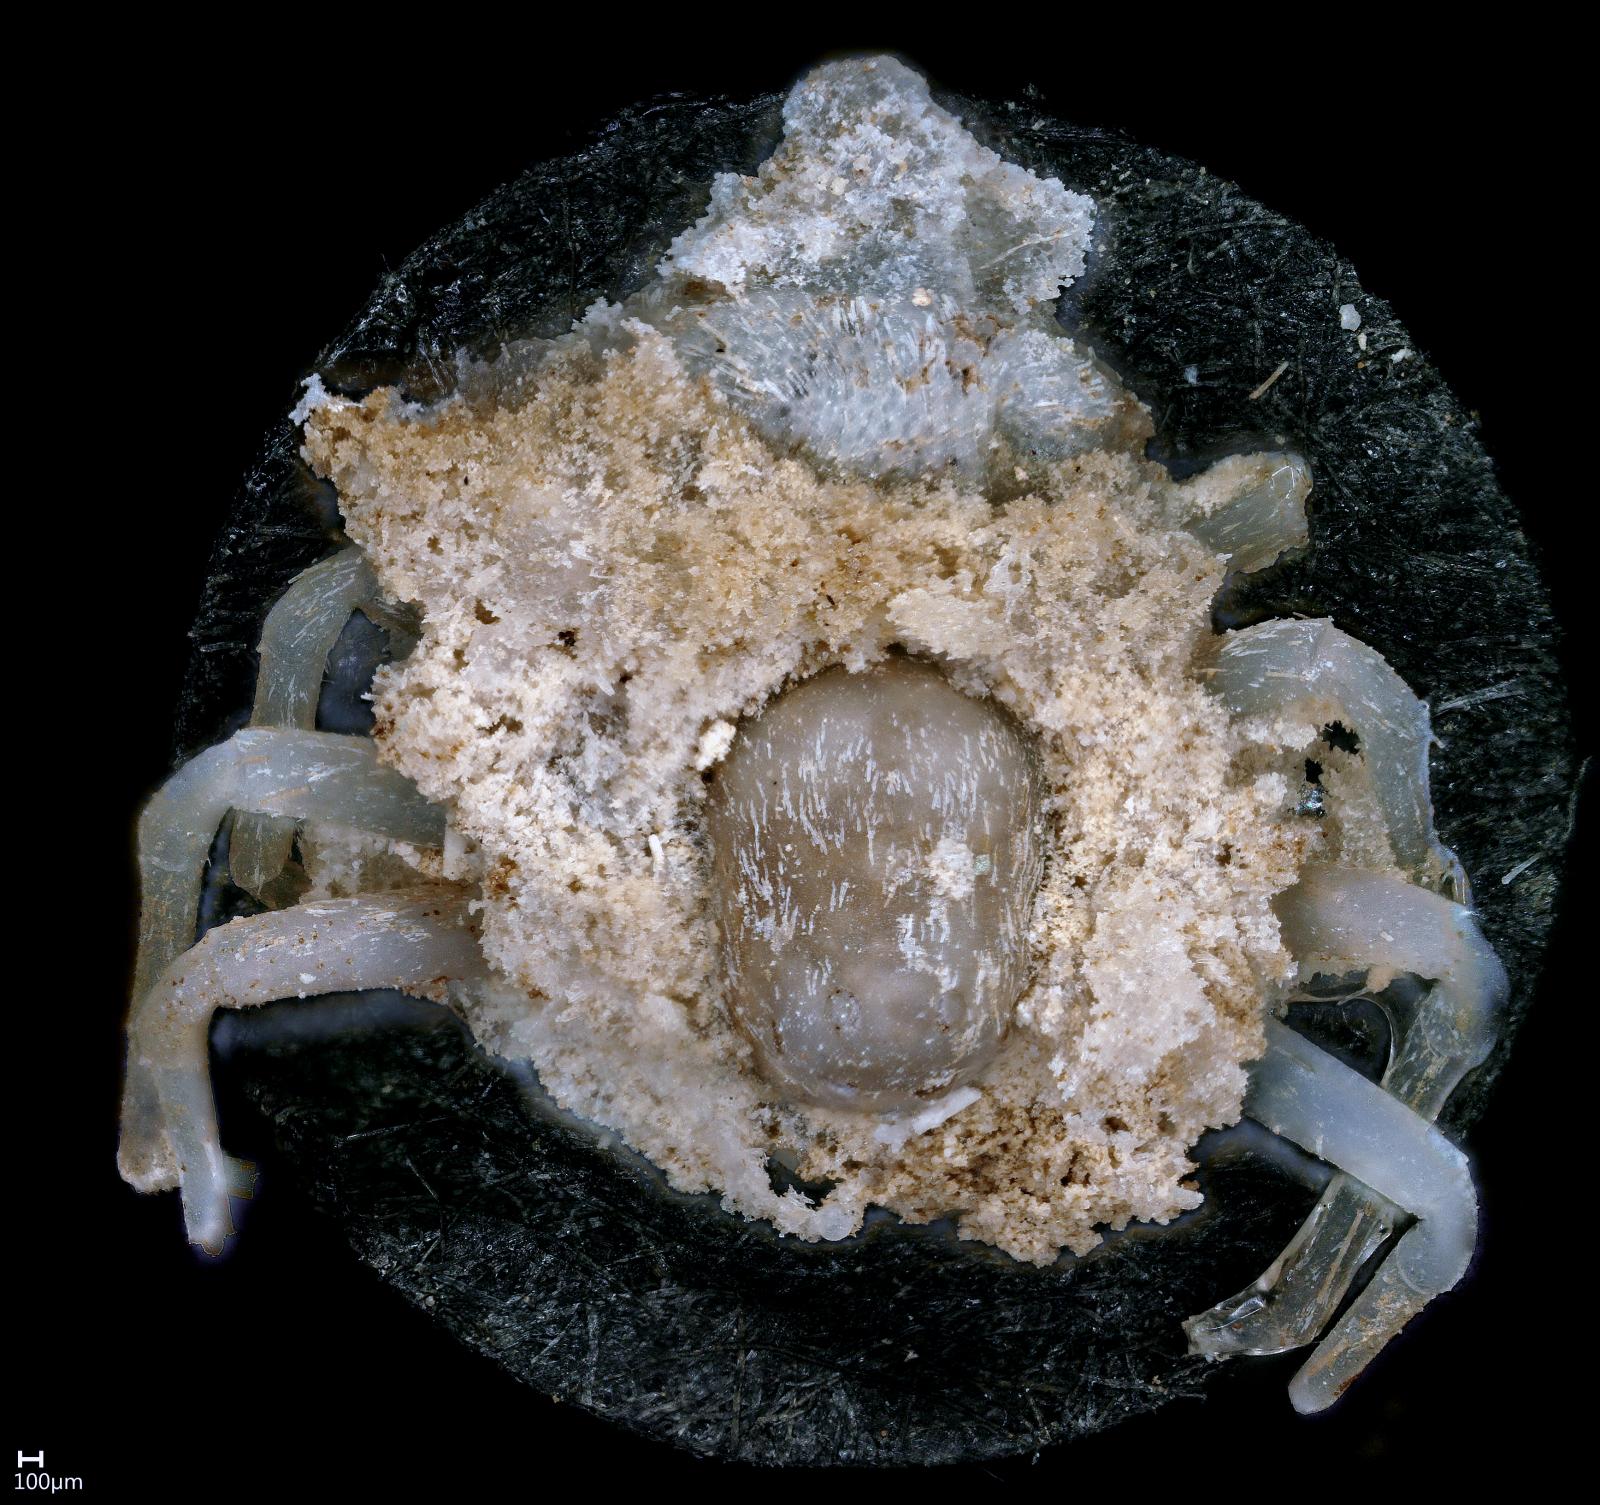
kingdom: Animalia
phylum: Arthropoda
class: Arachnida
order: Araneae
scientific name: Araneae
